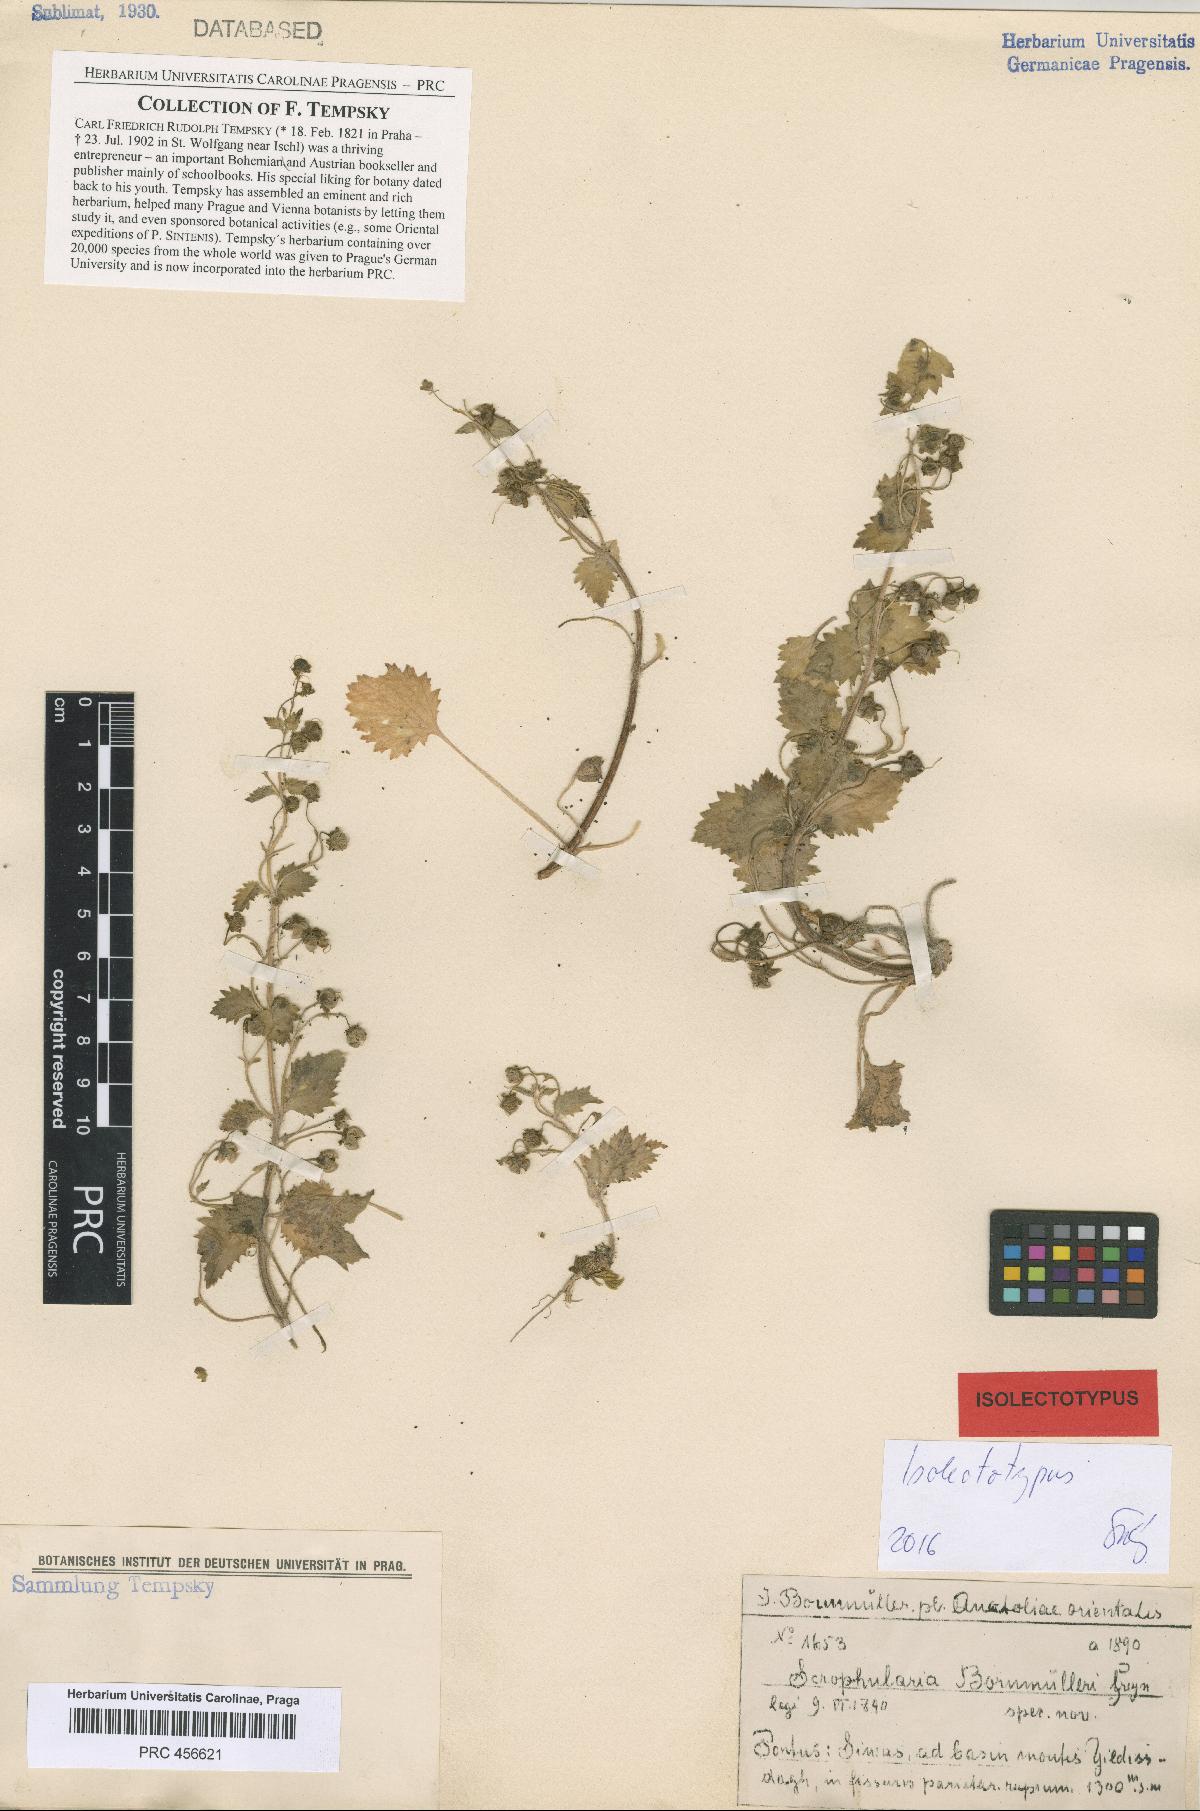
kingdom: Plantae
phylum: Tracheophyta
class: Magnoliopsida
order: Lamiales
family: Scrophulariaceae
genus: Scrophularia
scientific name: Scrophularia kotschyana
